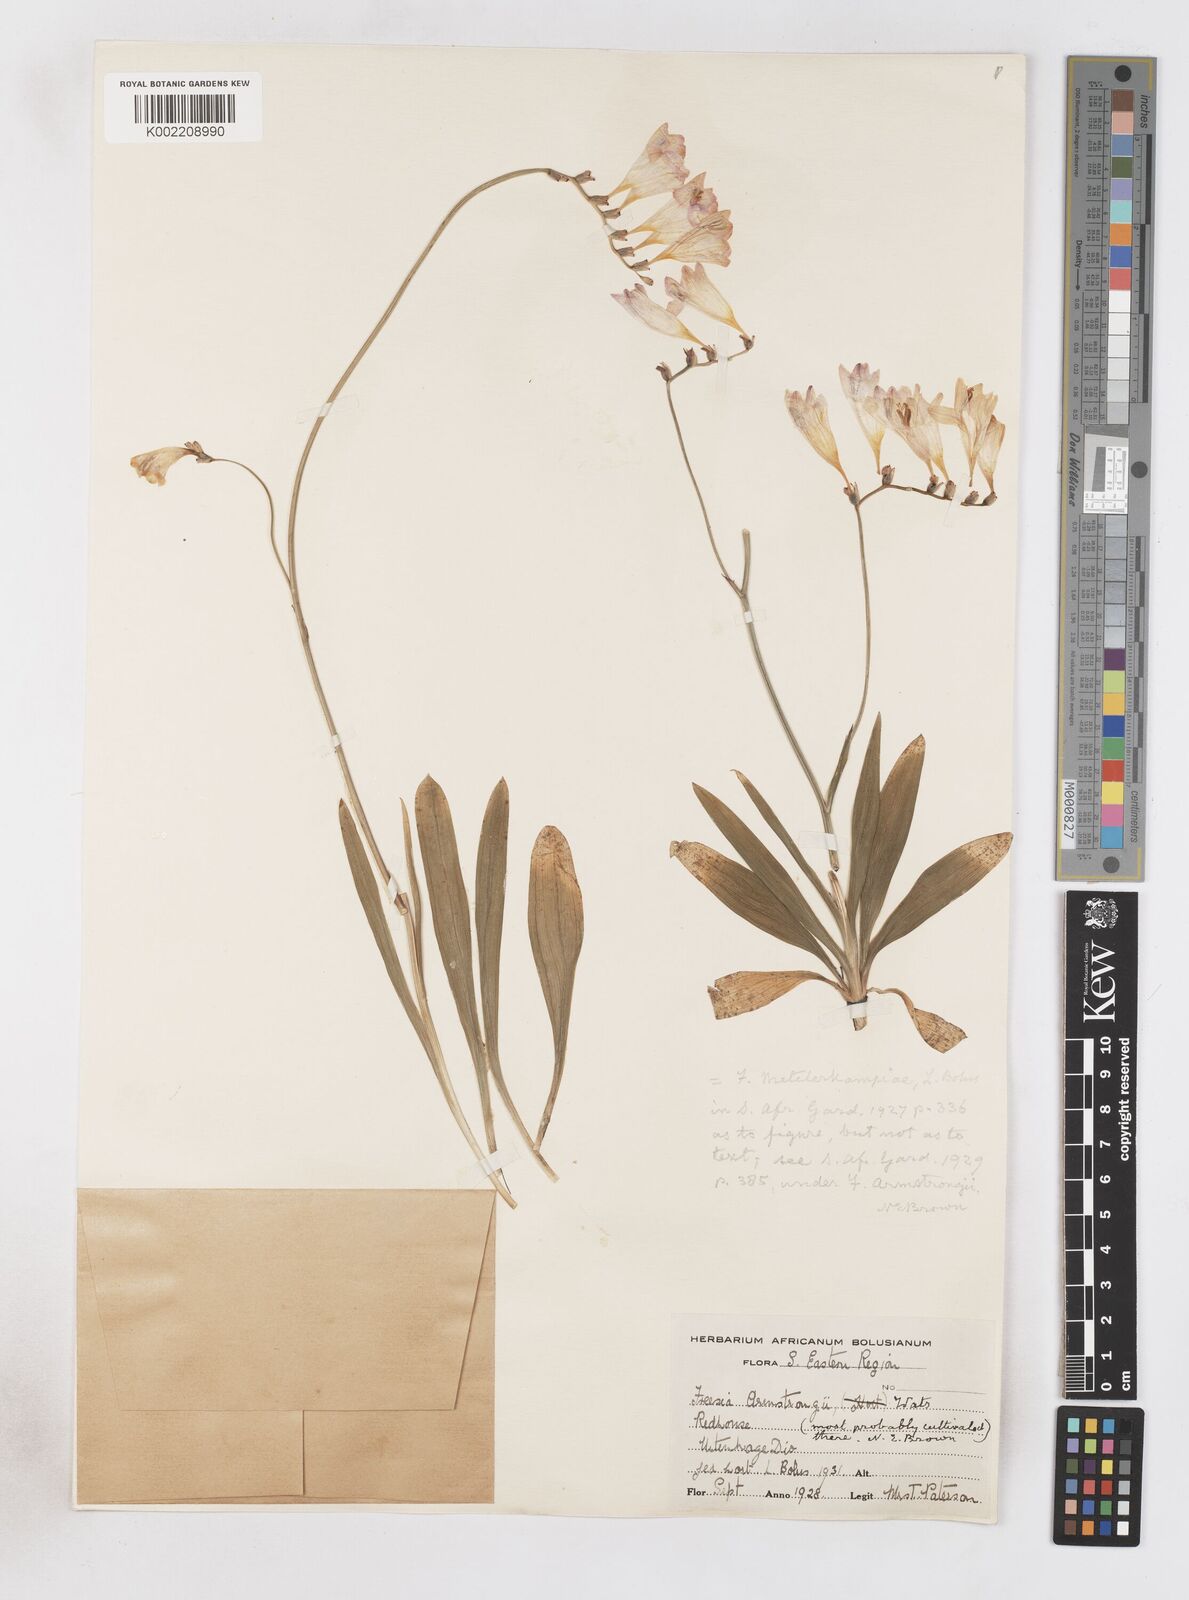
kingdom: Plantae
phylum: Tracheophyta
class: Liliopsida
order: Asparagales
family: Iridaceae
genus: Freesia
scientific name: Freesia corymbosa
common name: Common freesia
